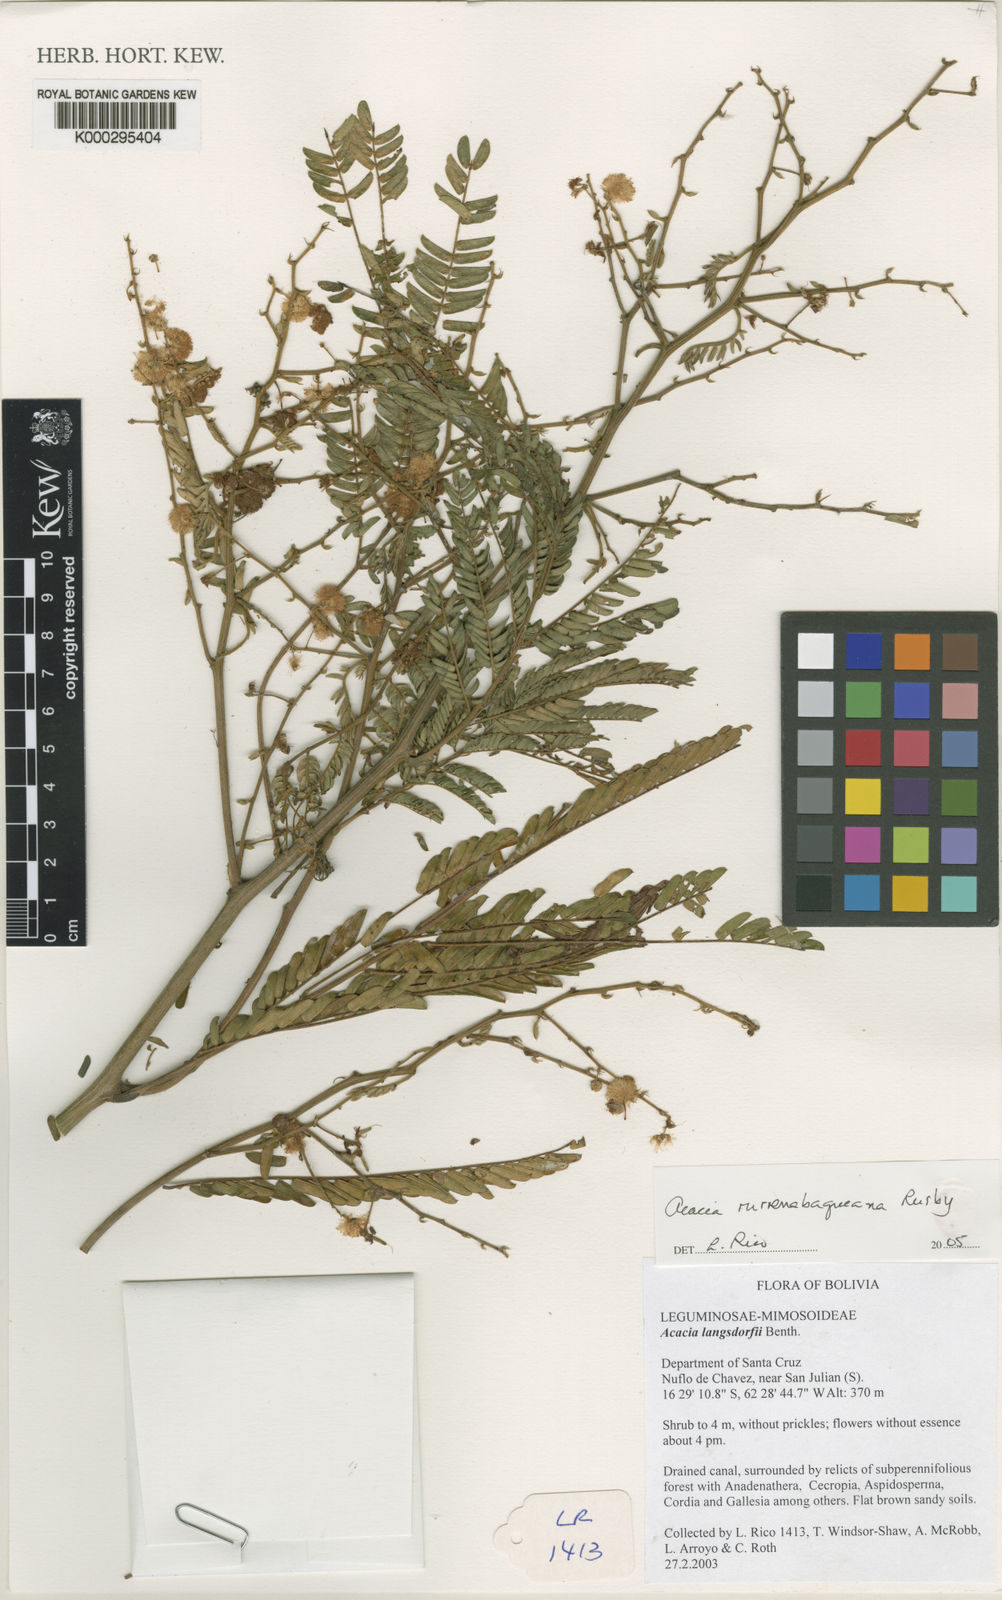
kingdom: Plantae
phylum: Tracheophyta
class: Magnoliopsida
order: Fabales
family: Fabaceae
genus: Parasenegalia
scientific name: Parasenegalia rurrenabaqueana
